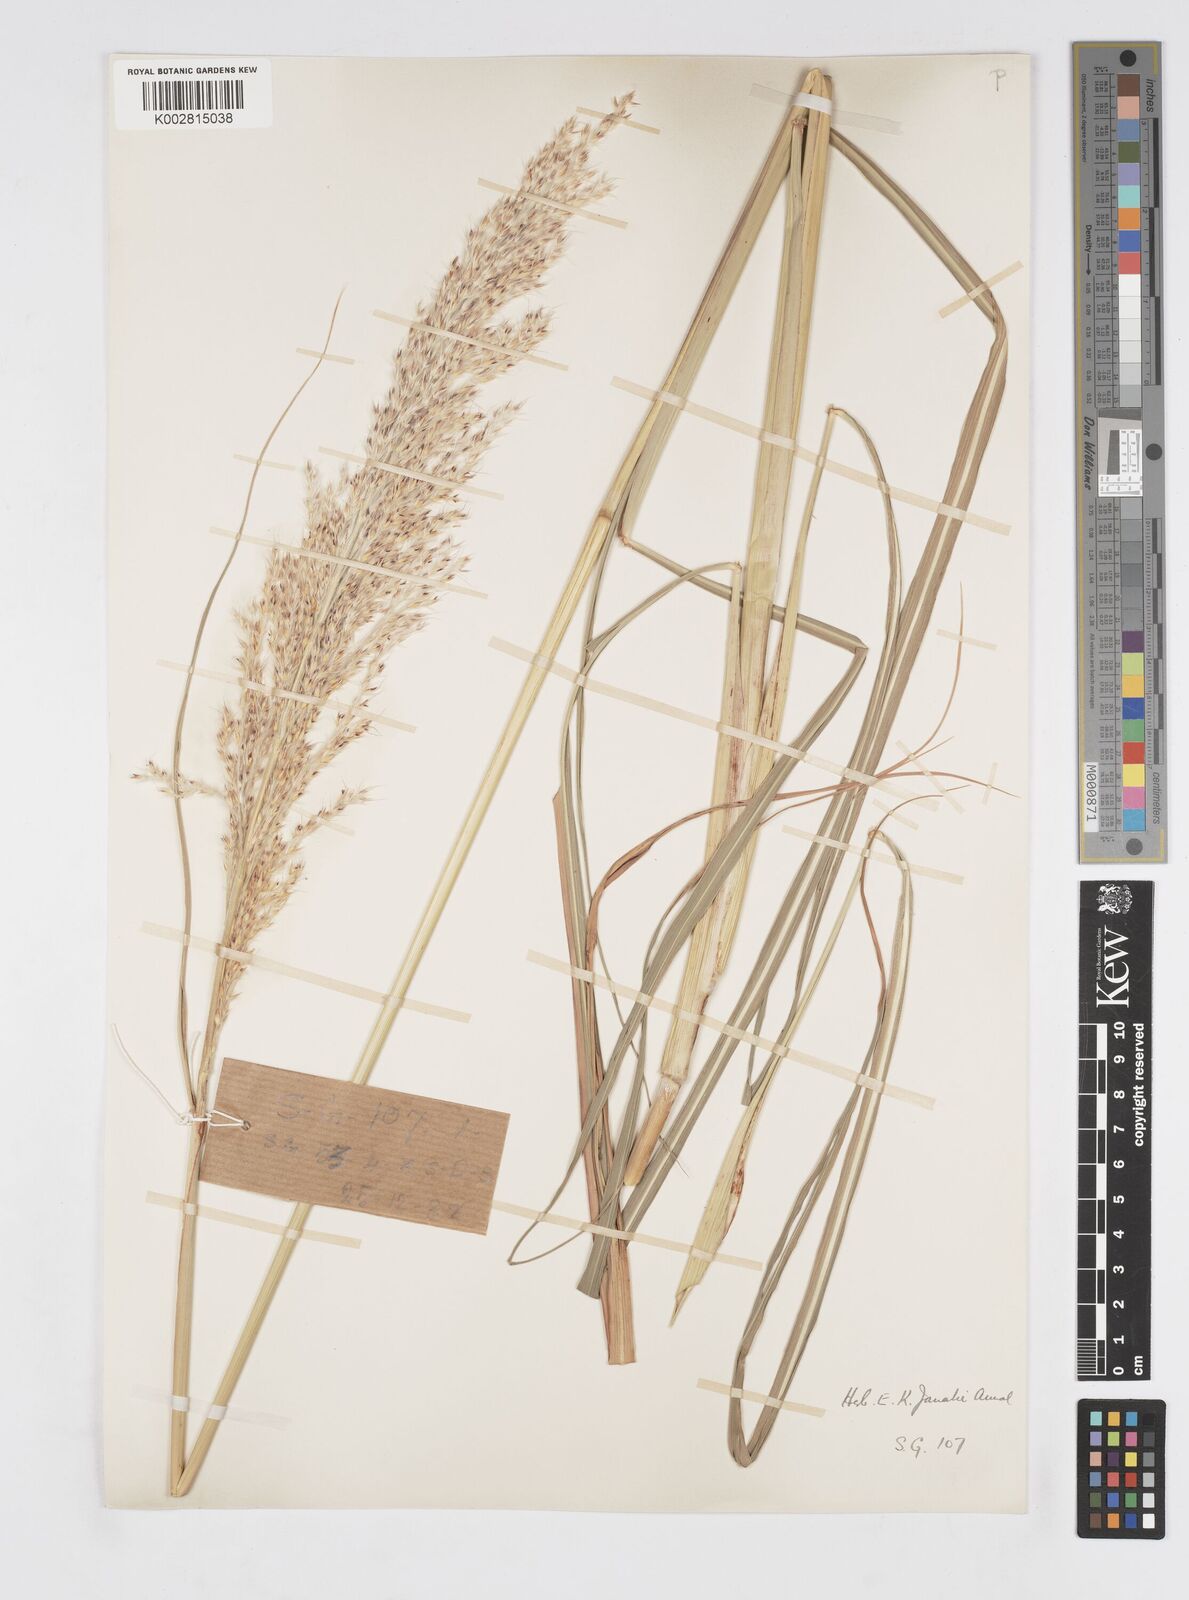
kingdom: Plantae
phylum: Tracheophyta
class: Liliopsida
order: Poales
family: Poaceae
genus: Saccharum
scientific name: Saccharum
